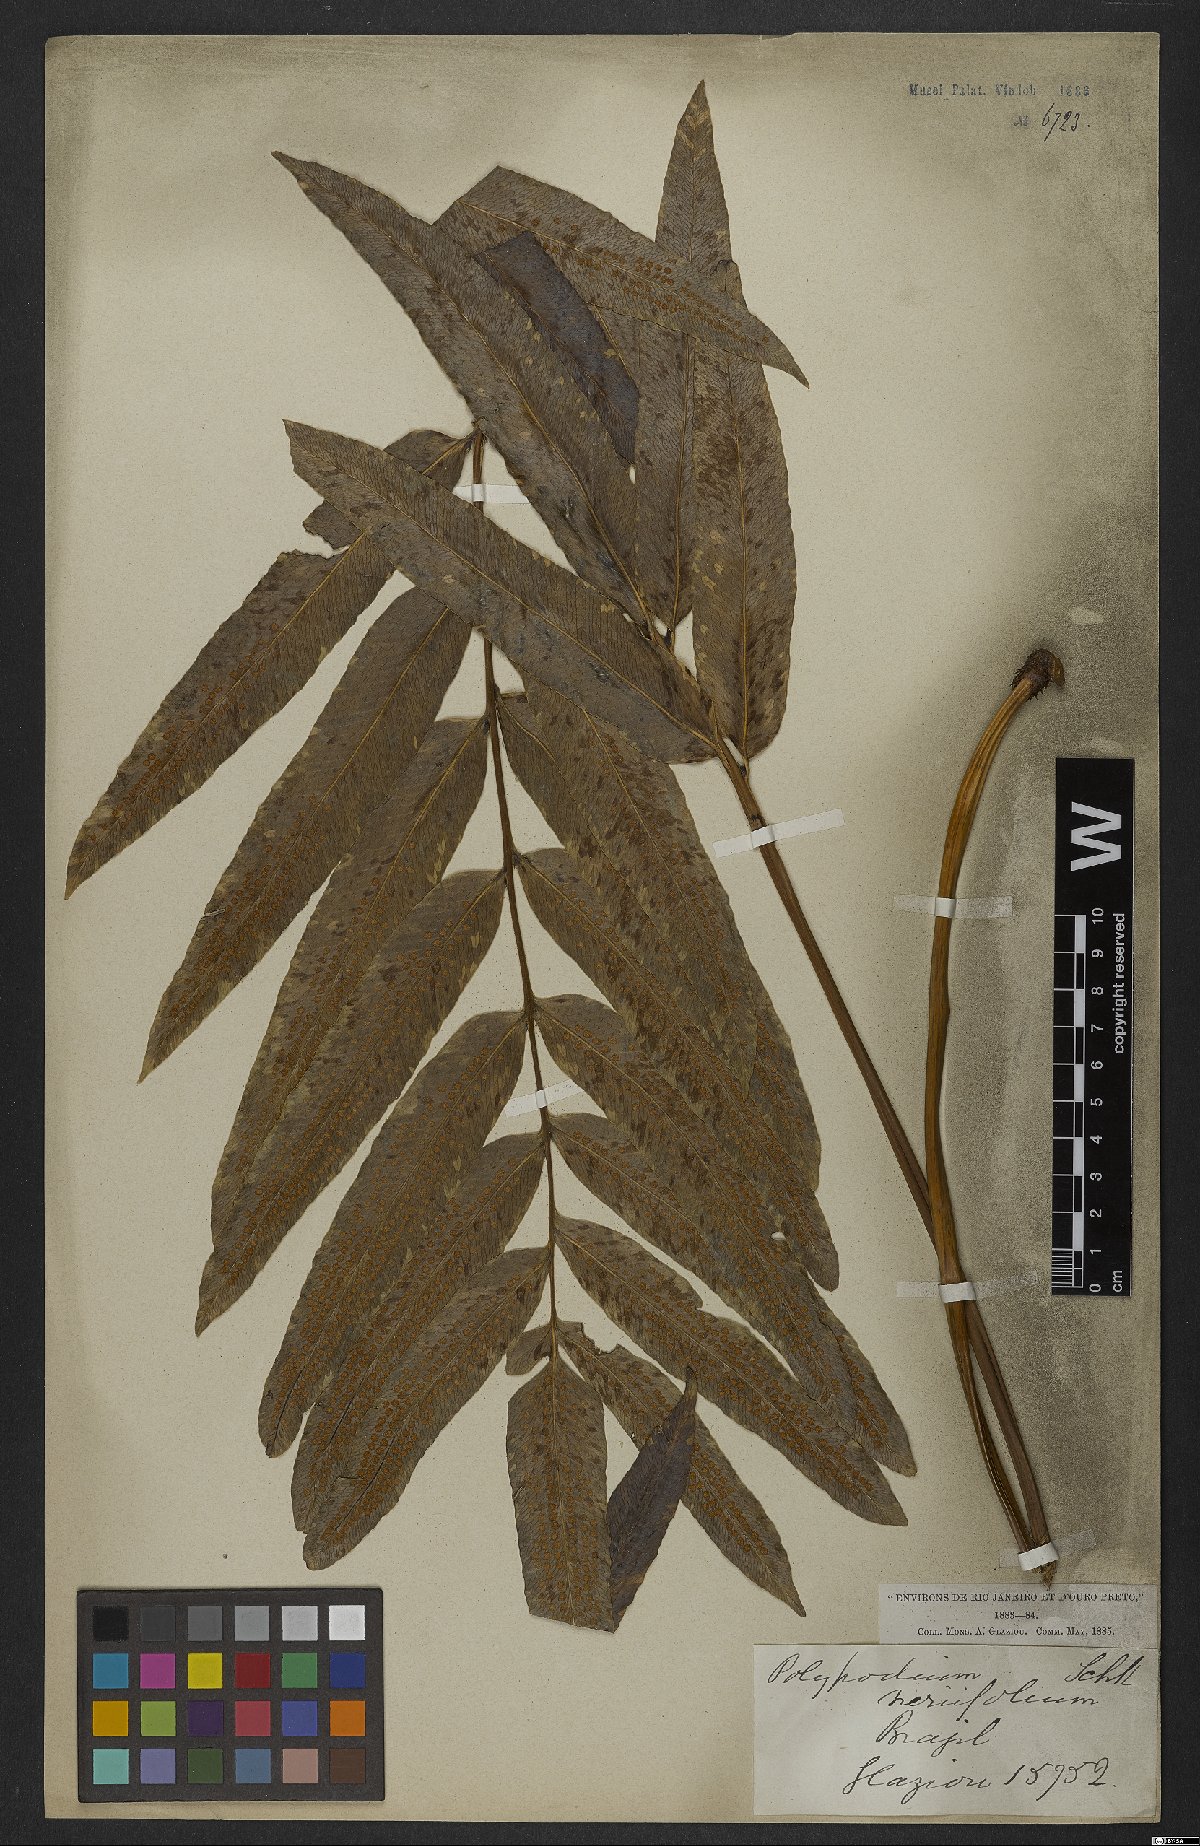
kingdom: Plantae
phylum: Tracheophyta
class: Polypodiopsida
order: Polypodiales
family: Polypodiaceae
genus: Serpocaulon
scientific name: Serpocaulon triseriale
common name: Angle-vein fern
